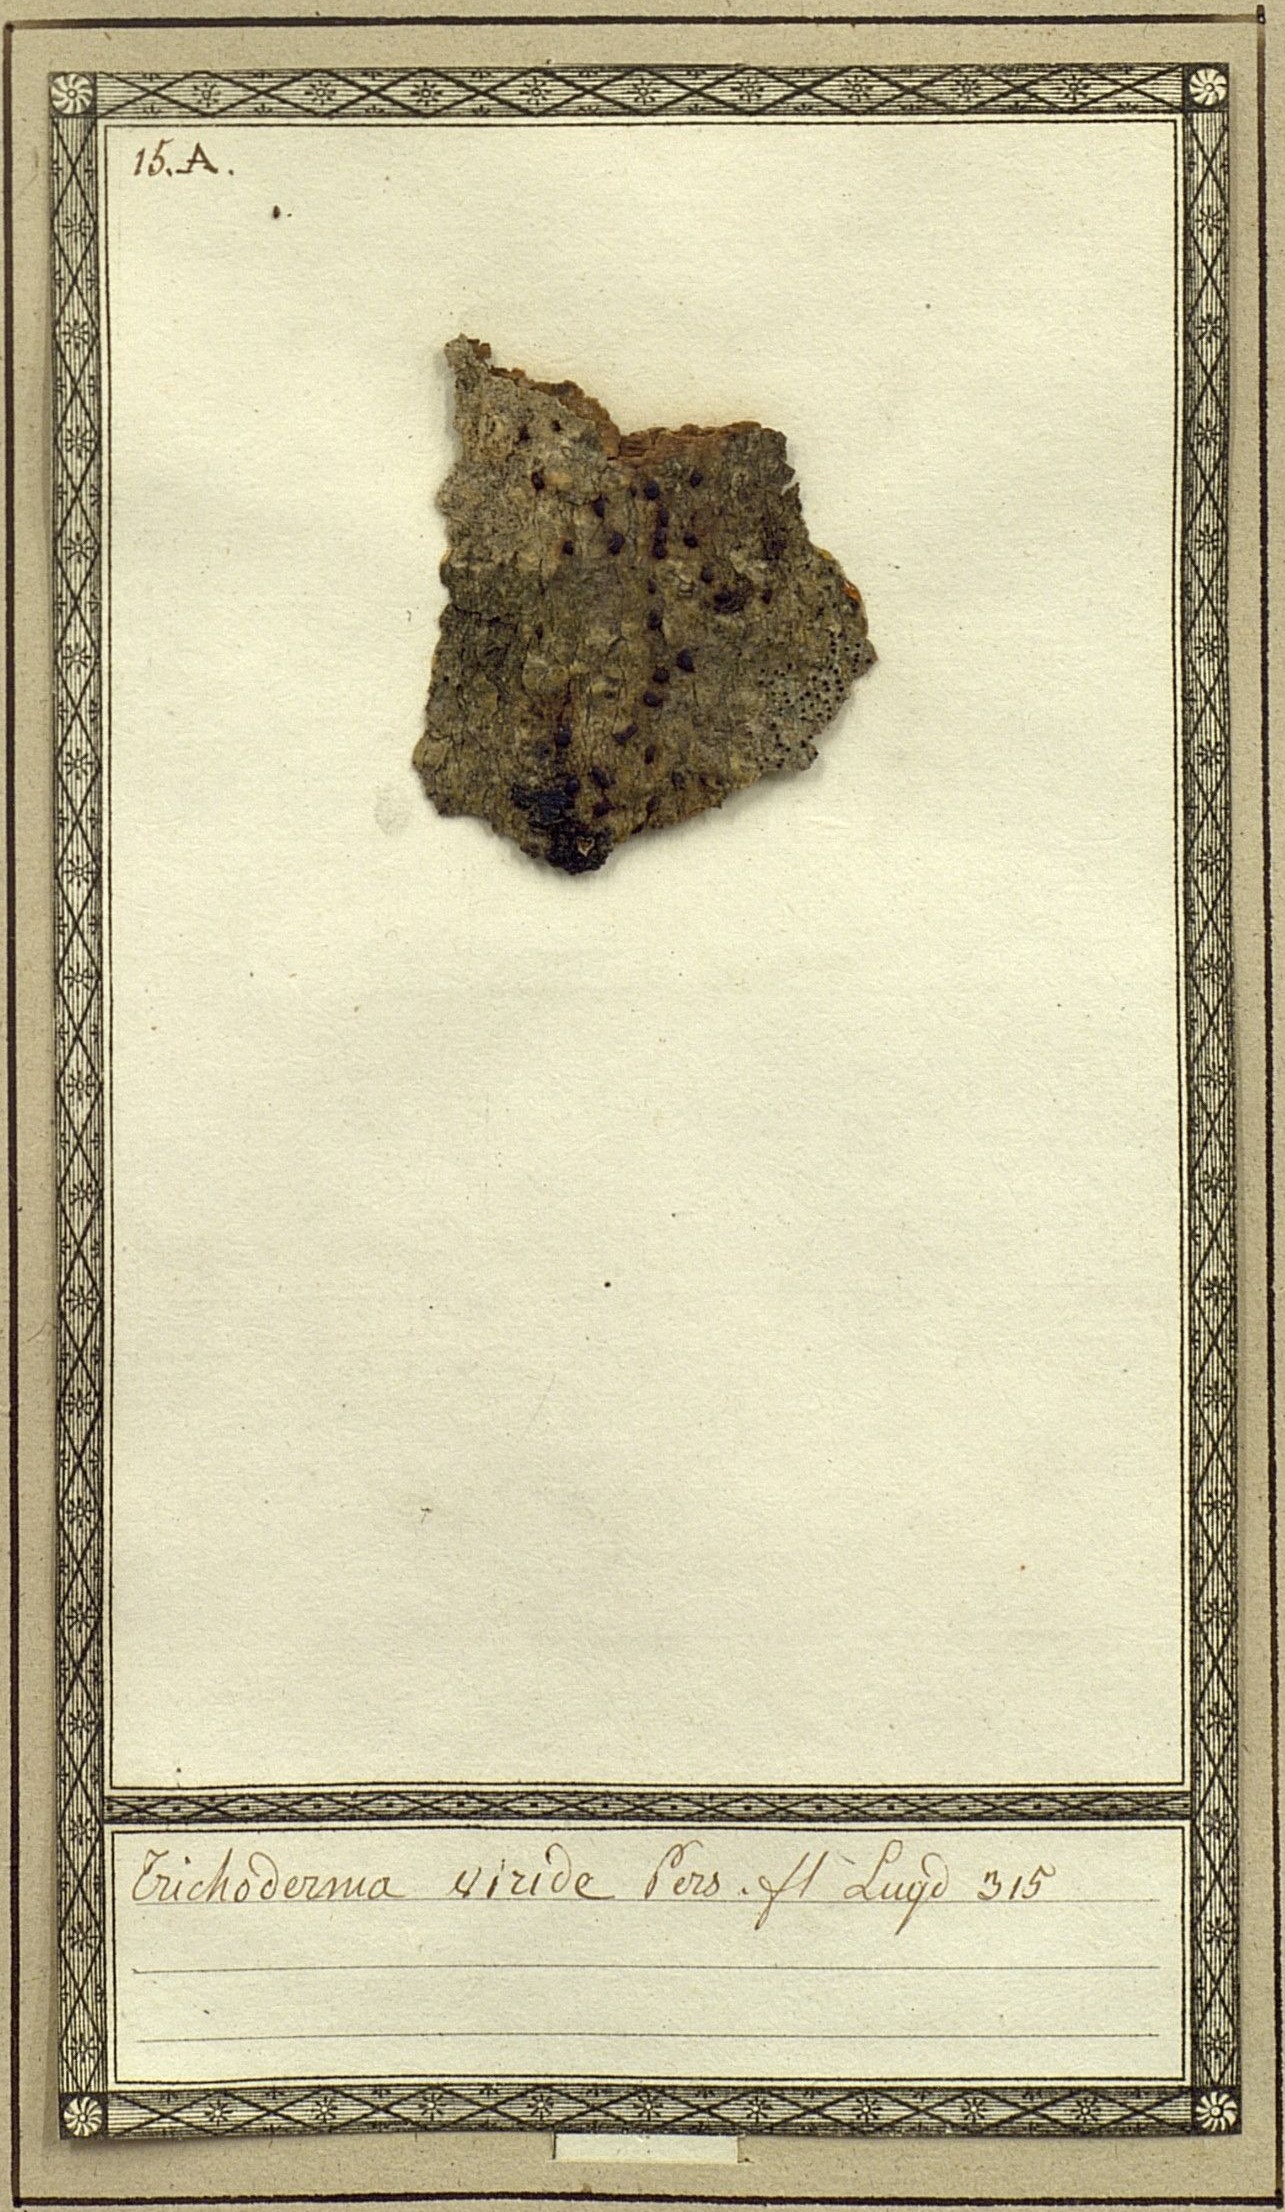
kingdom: Fungi
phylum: Ascomycota
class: Sordariomycetes
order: Hypocreales
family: Hypocreaceae
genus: Trichoderma
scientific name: Trichoderma viride
